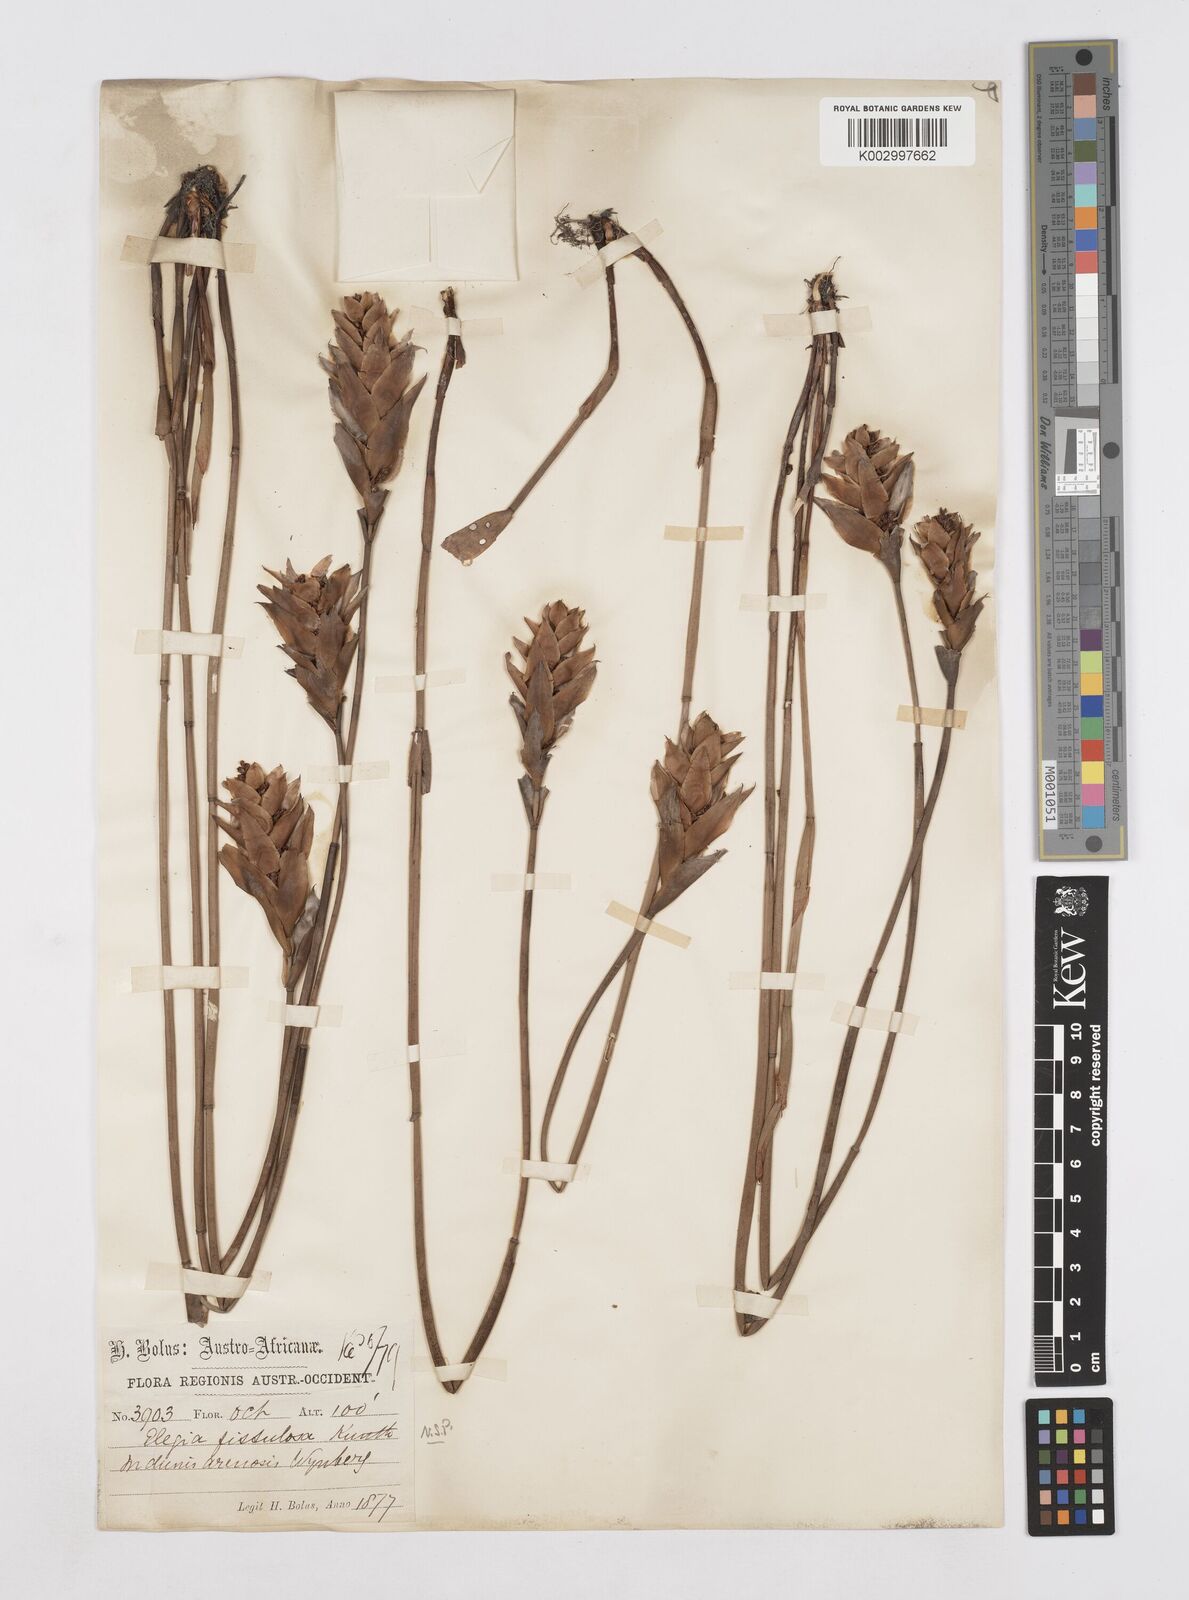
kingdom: Plantae
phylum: Tracheophyta
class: Liliopsida
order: Poales
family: Restionaceae
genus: Elegia
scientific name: Elegia fistulosa
